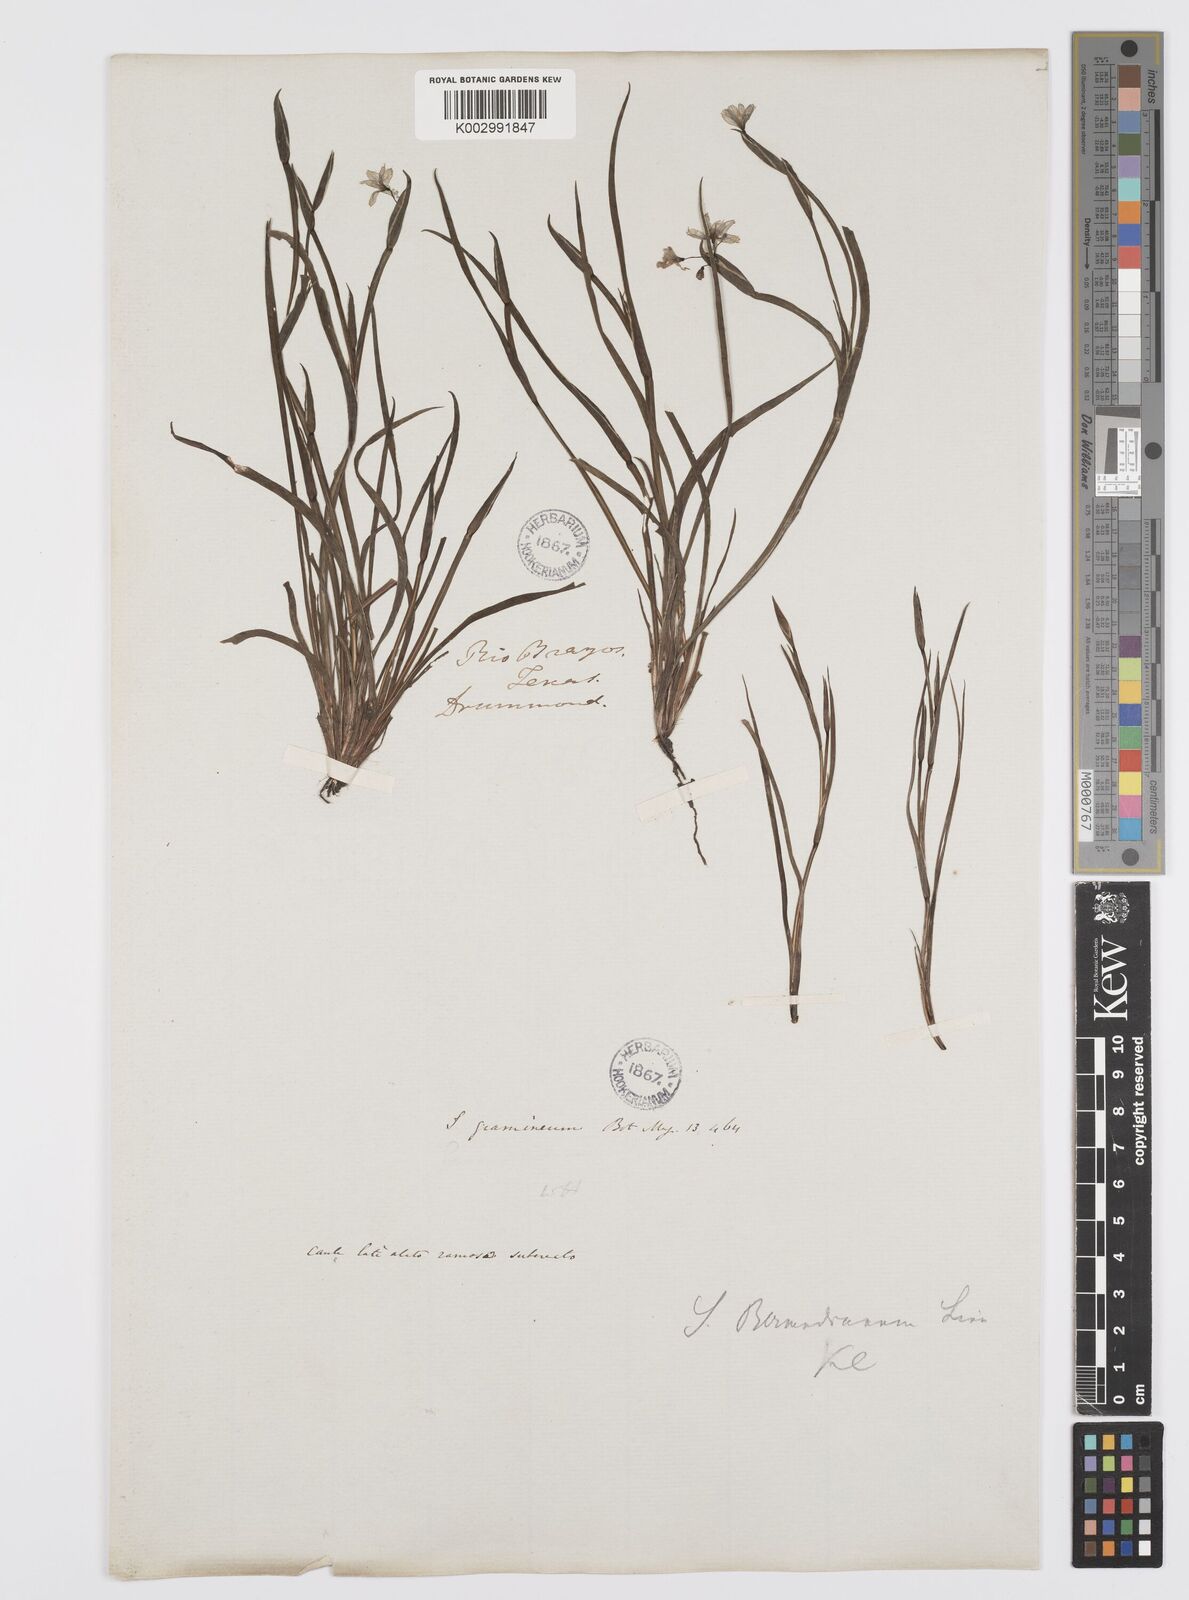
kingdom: Plantae
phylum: Tracheophyta
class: Liliopsida
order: Asparagales
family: Iridaceae
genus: Sisyrinchium
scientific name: Sisyrinchium bermudiana
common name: Blue-eyed-grass
